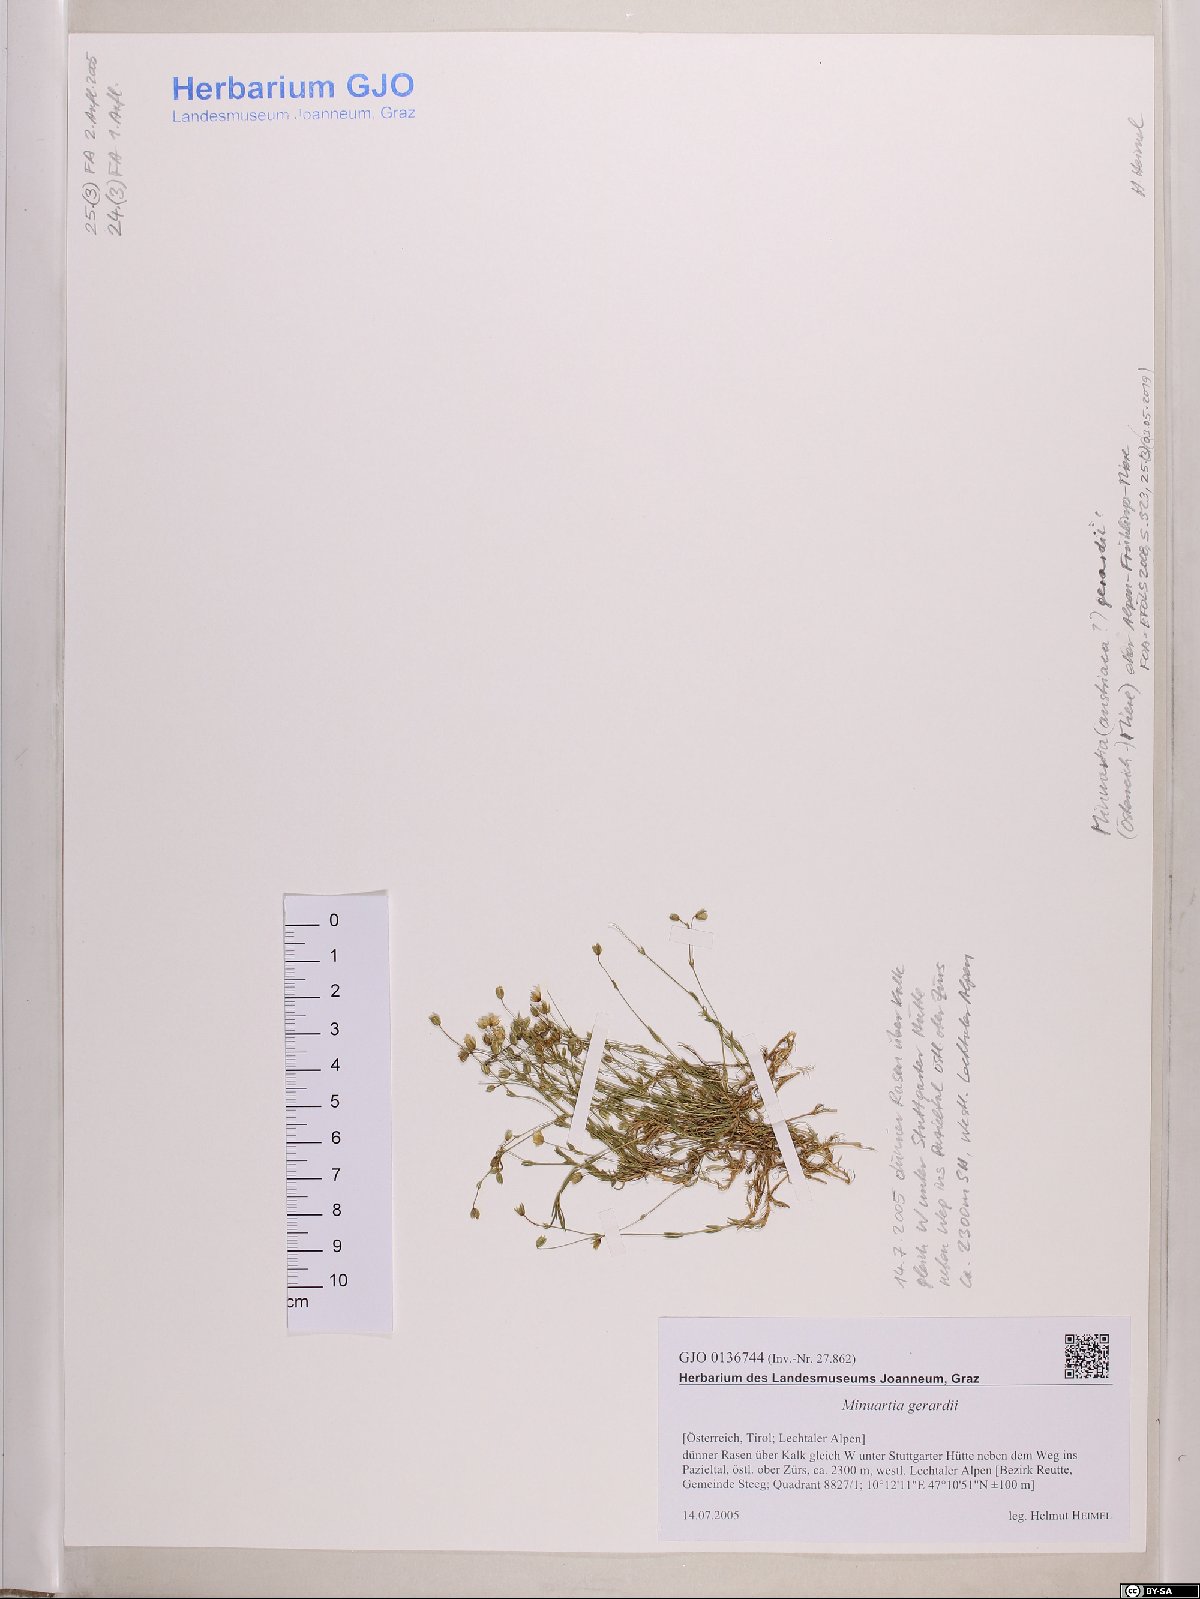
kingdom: Plantae
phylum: Tracheophyta
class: Magnoliopsida
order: Caryophyllales
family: Caryophyllaceae
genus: Sabulina
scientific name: Sabulina verna
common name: Spring sandwort
